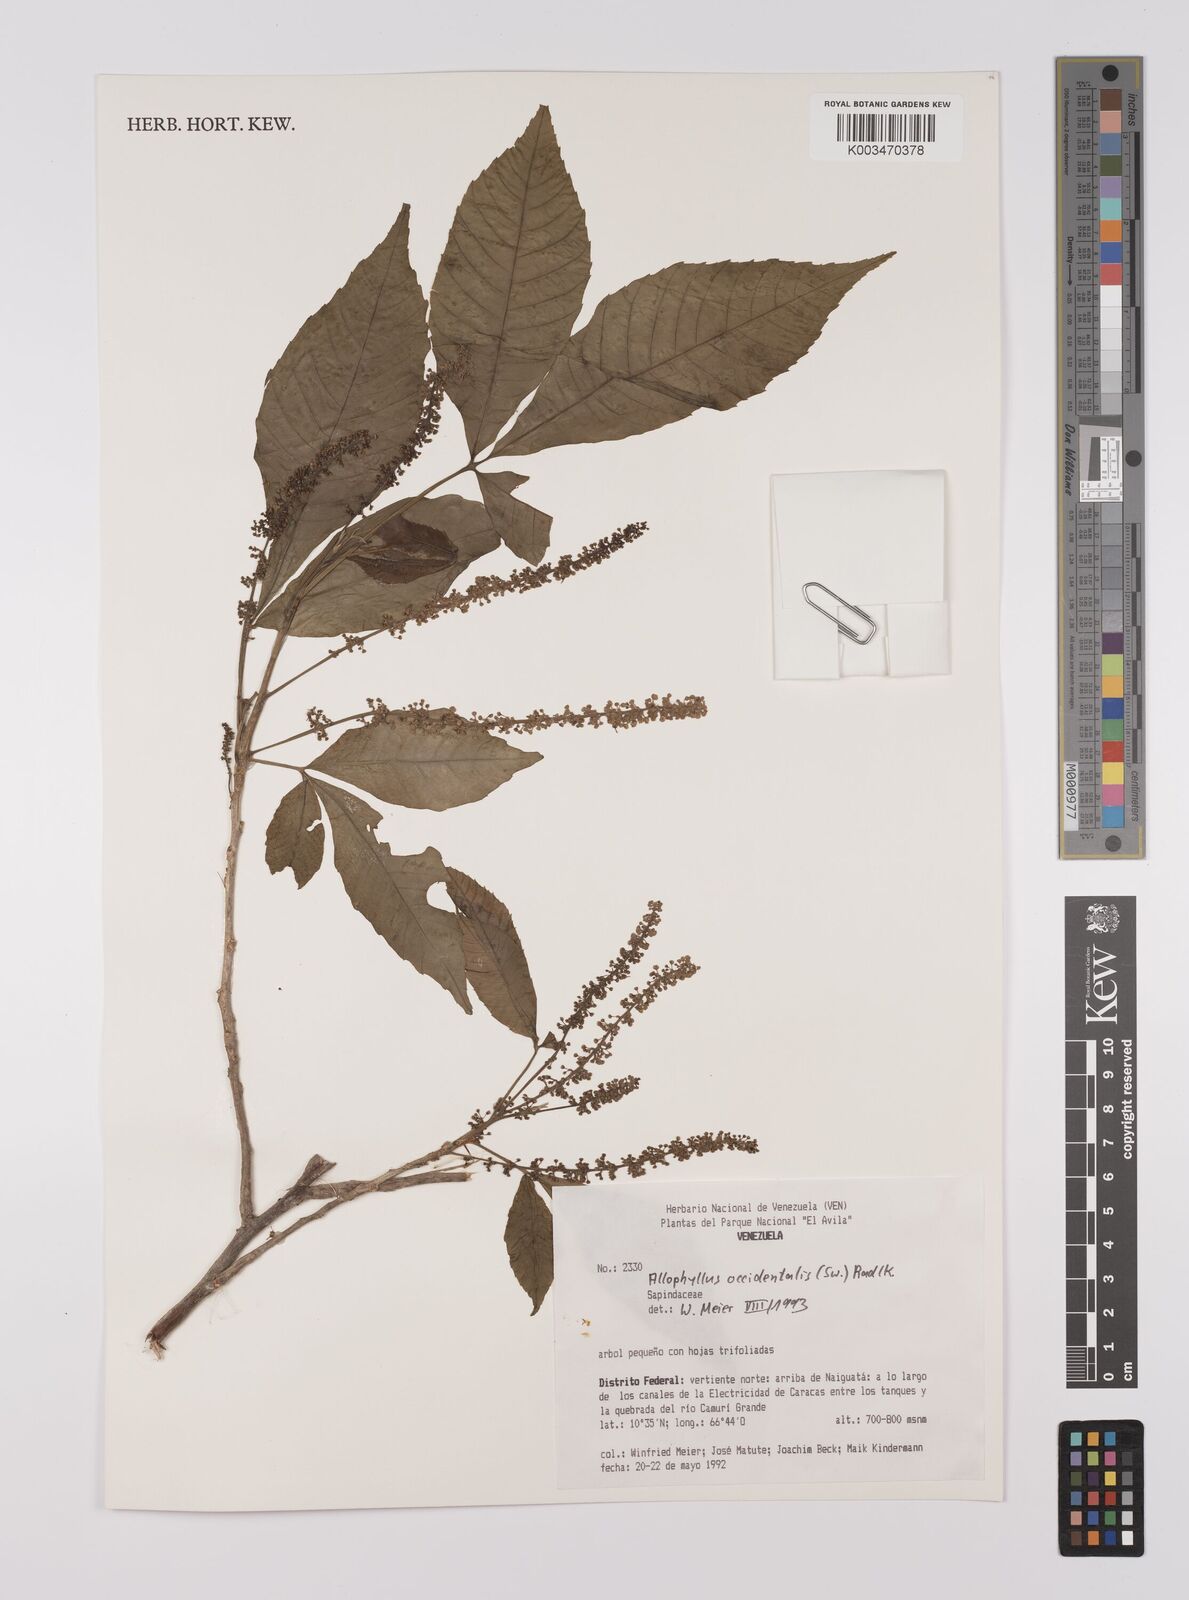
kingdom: Plantae
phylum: Tracheophyta
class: Magnoliopsida
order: Sapindales
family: Sapindaceae
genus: Allophylus
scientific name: Allophylus
